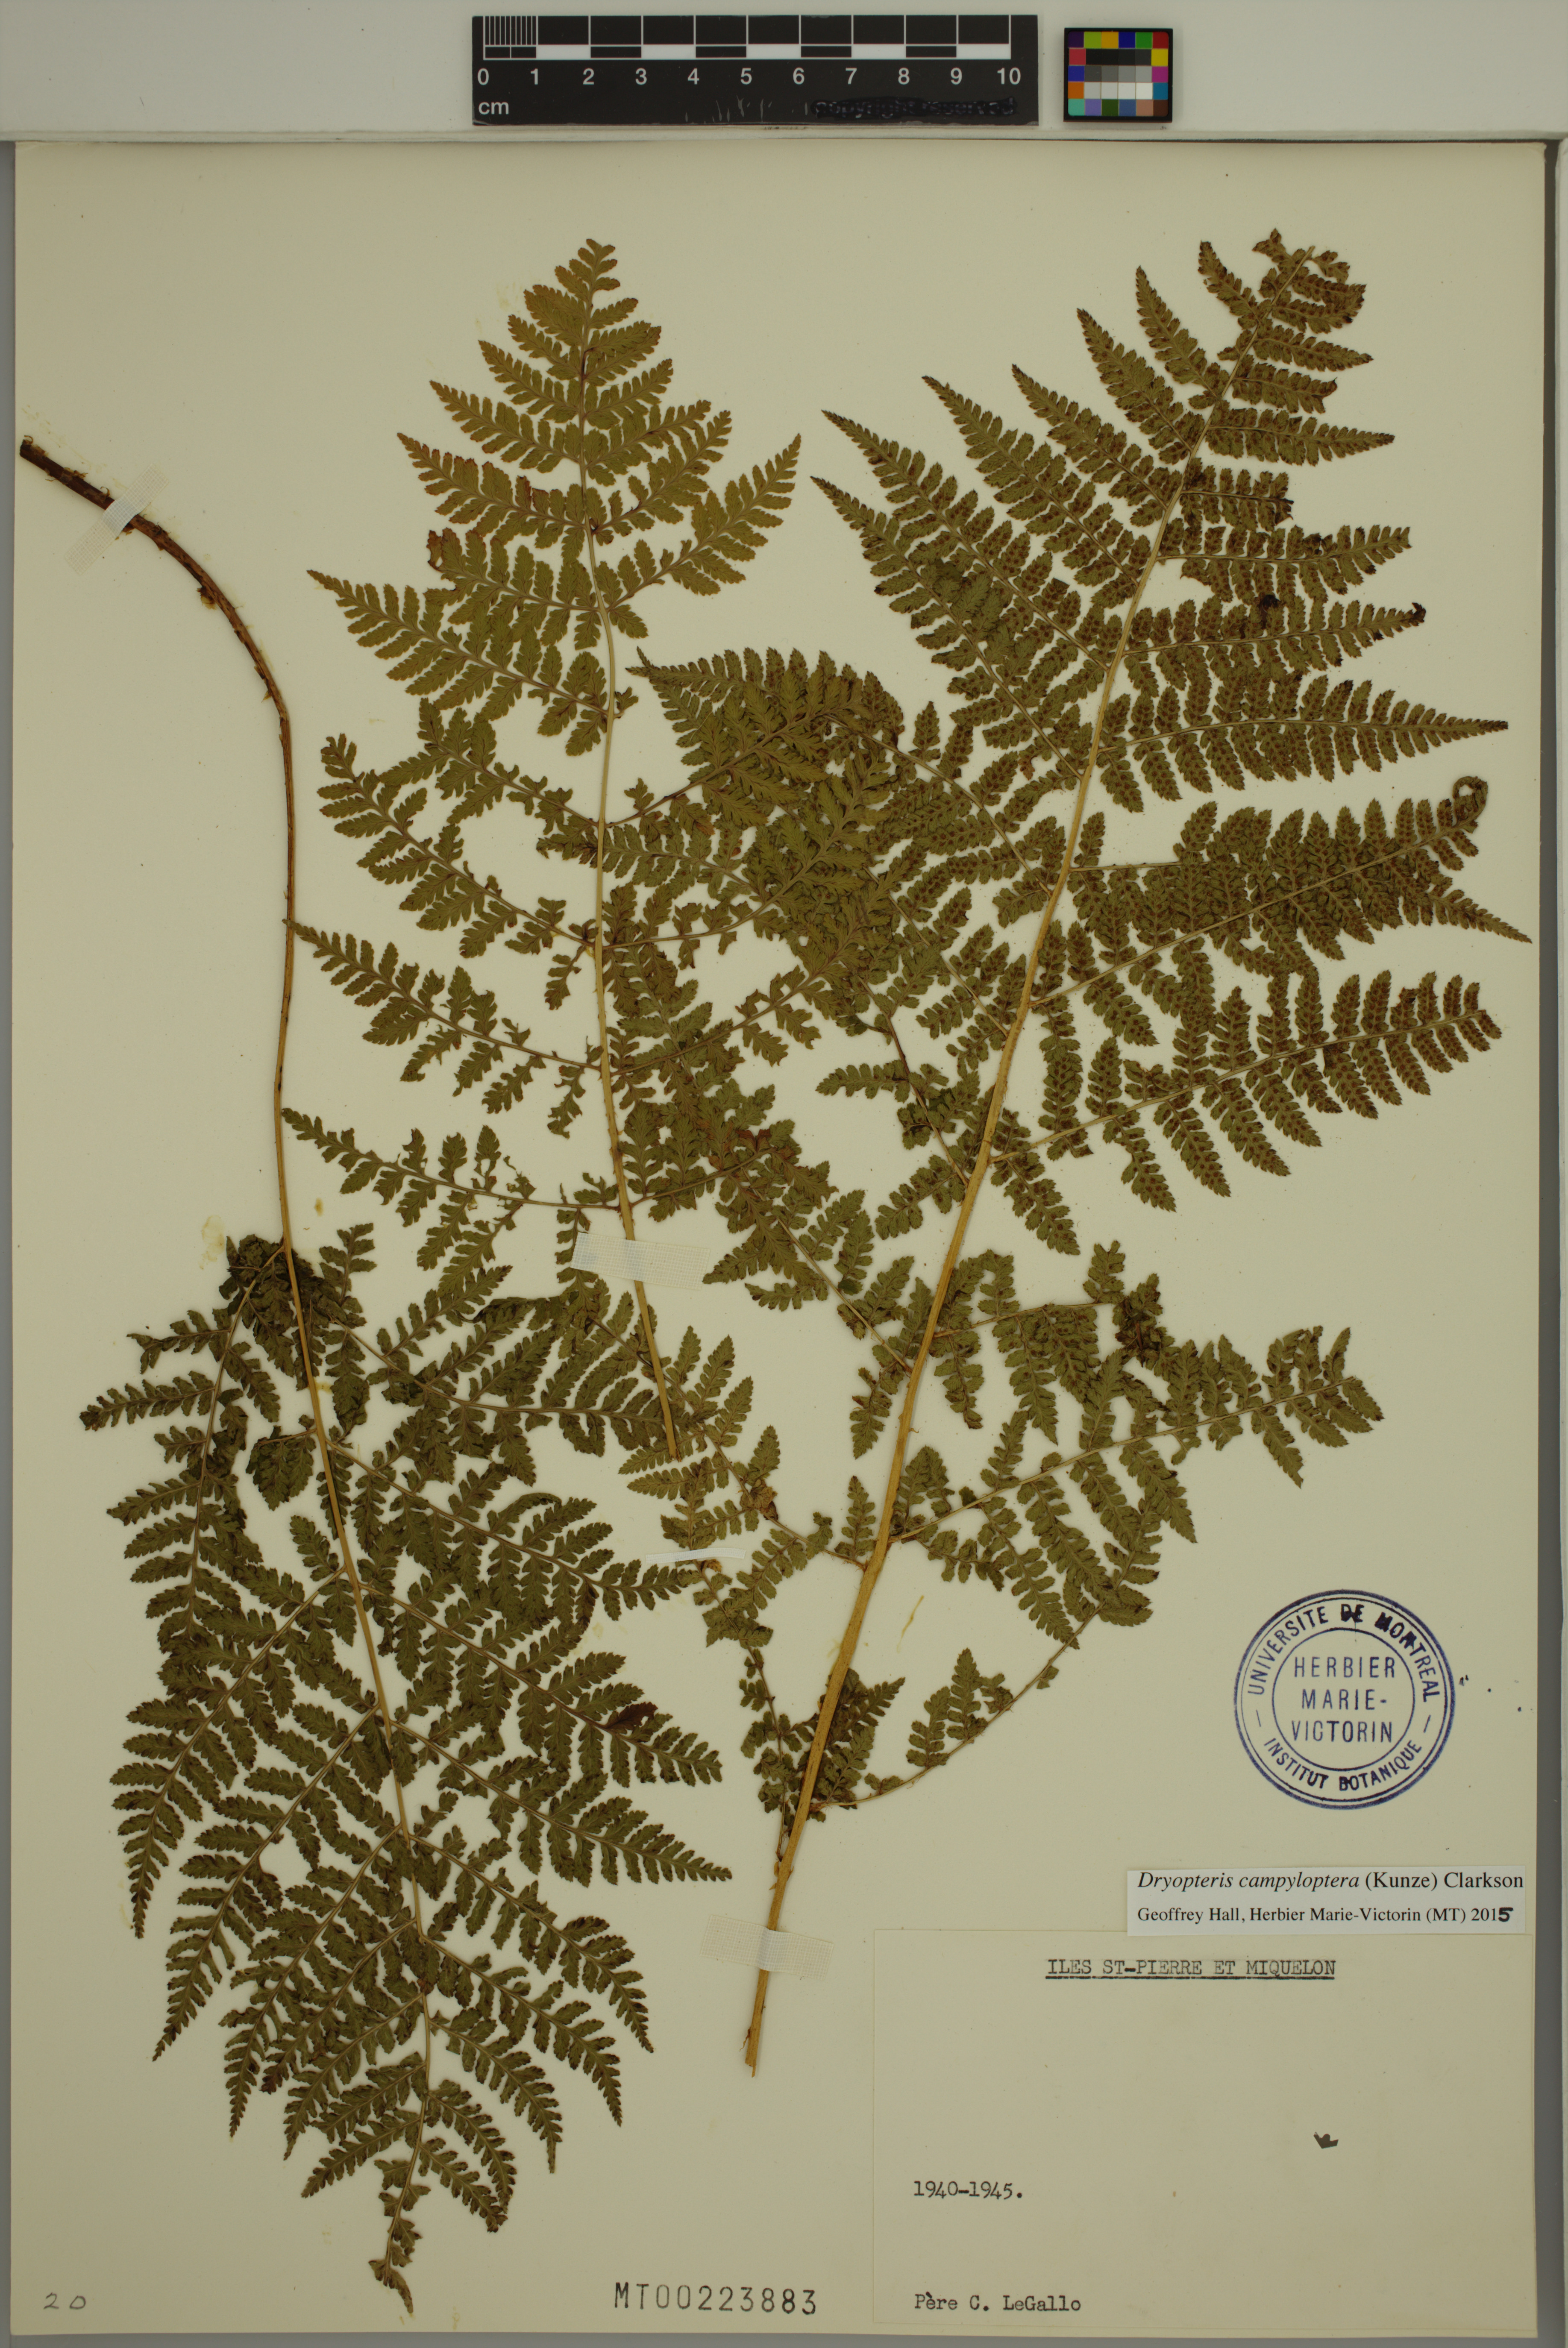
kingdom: Plantae
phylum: Tracheophyta
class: Polypodiopsida
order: Polypodiales
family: Dryopteridaceae
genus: Dryopteris
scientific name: Dryopteris campyloptera
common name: Mountain wood fern
